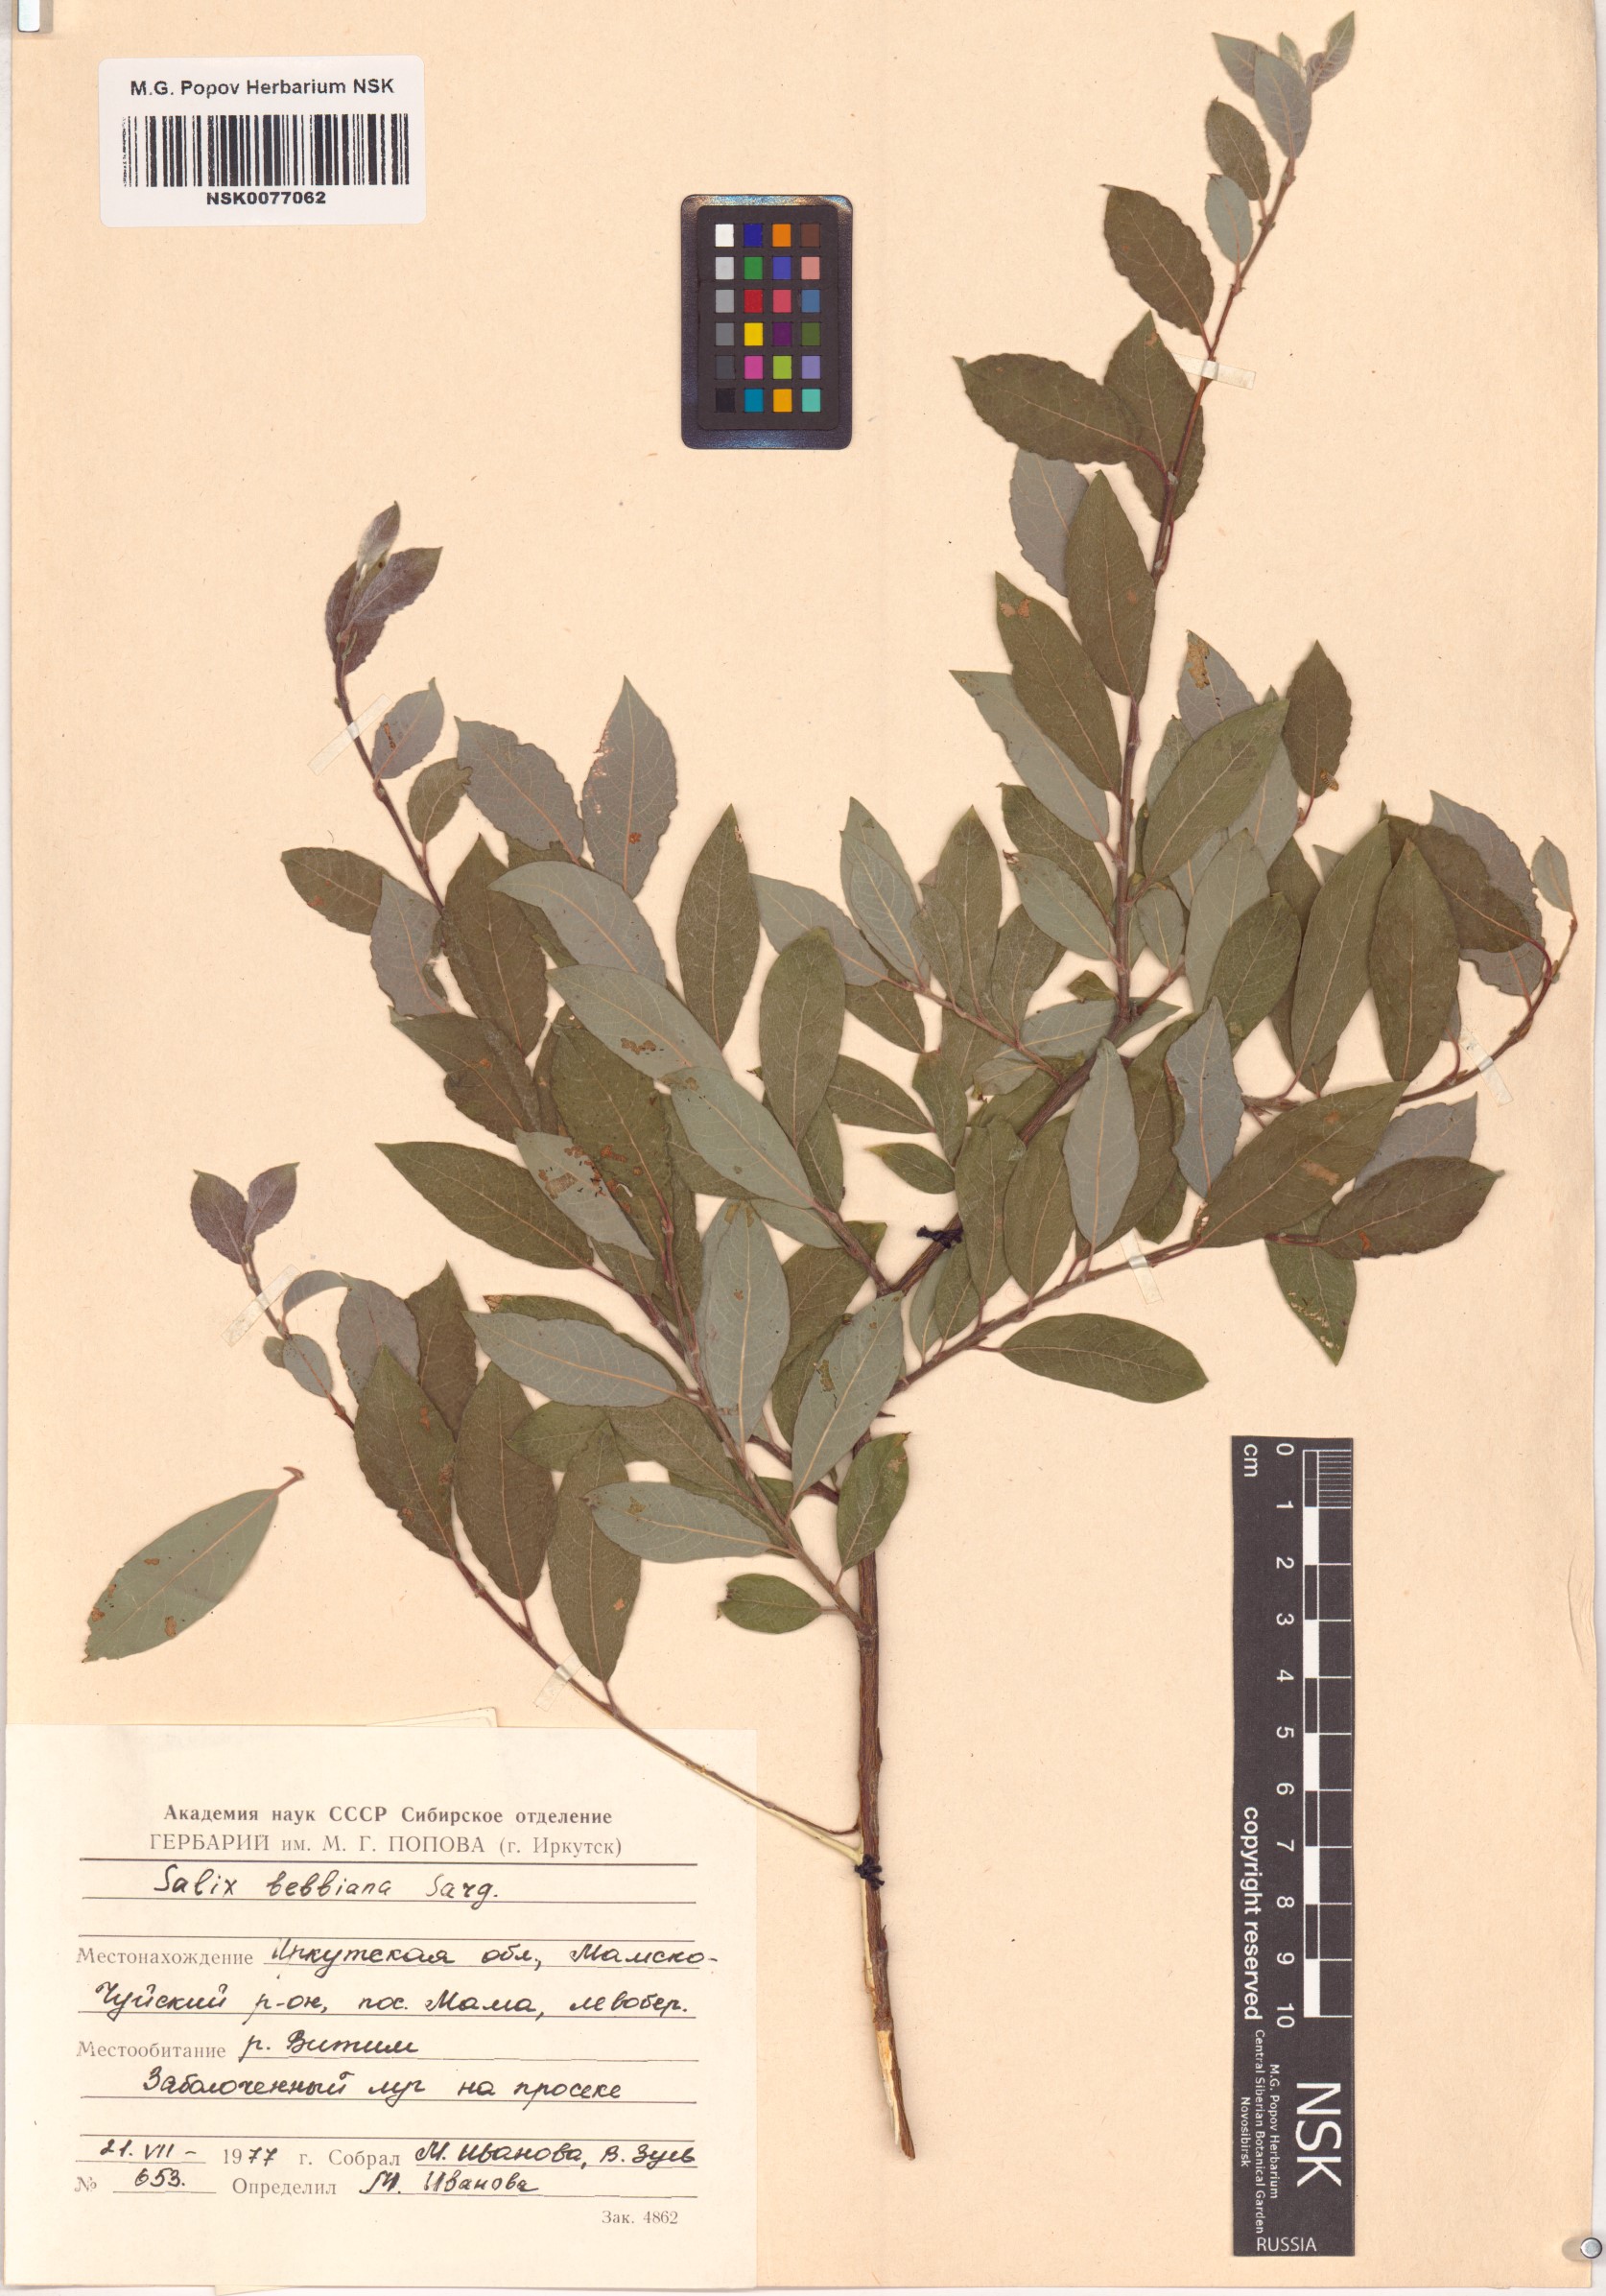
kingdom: Plantae
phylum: Tracheophyta
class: Magnoliopsida
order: Malpighiales
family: Salicaceae
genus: Salix
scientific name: Salix bebbiana
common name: Bebb's willow
